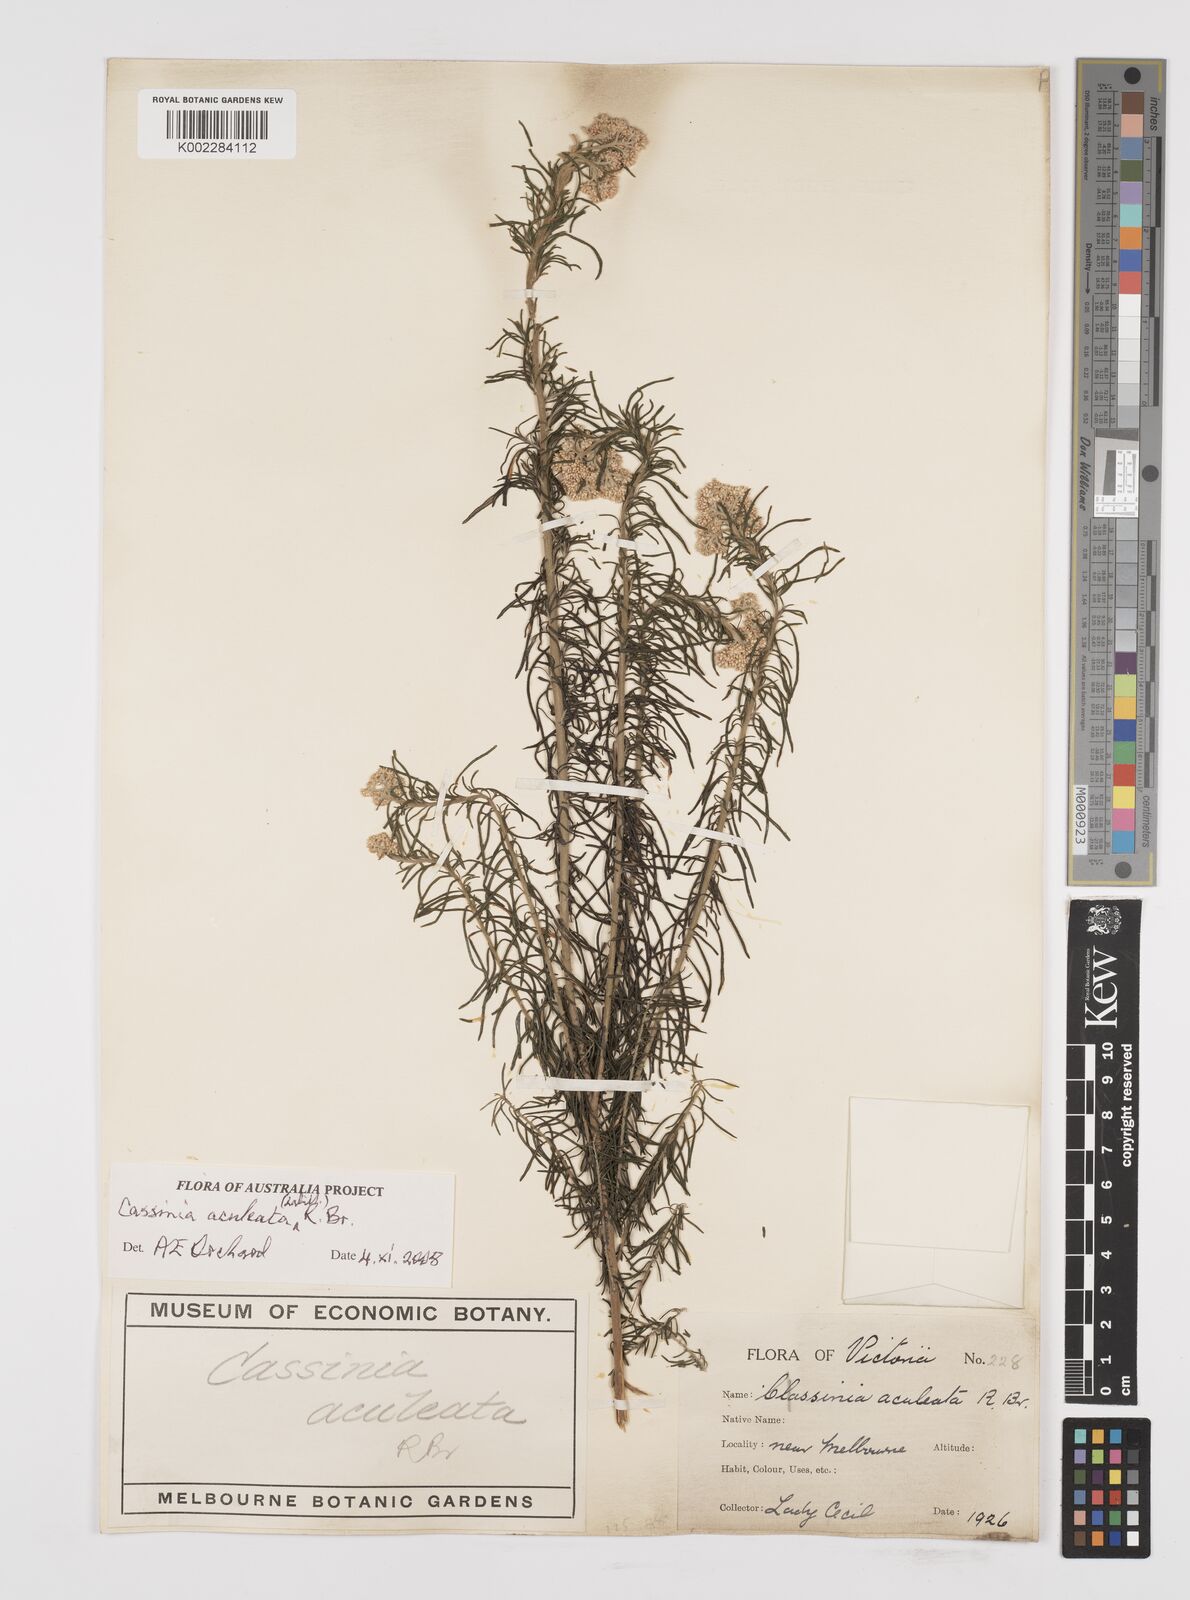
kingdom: Plantae
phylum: Tracheophyta
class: Magnoliopsida
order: Asterales
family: Asteraceae
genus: Cassinia
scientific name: Cassinia aculeata
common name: Australian tauhinu
